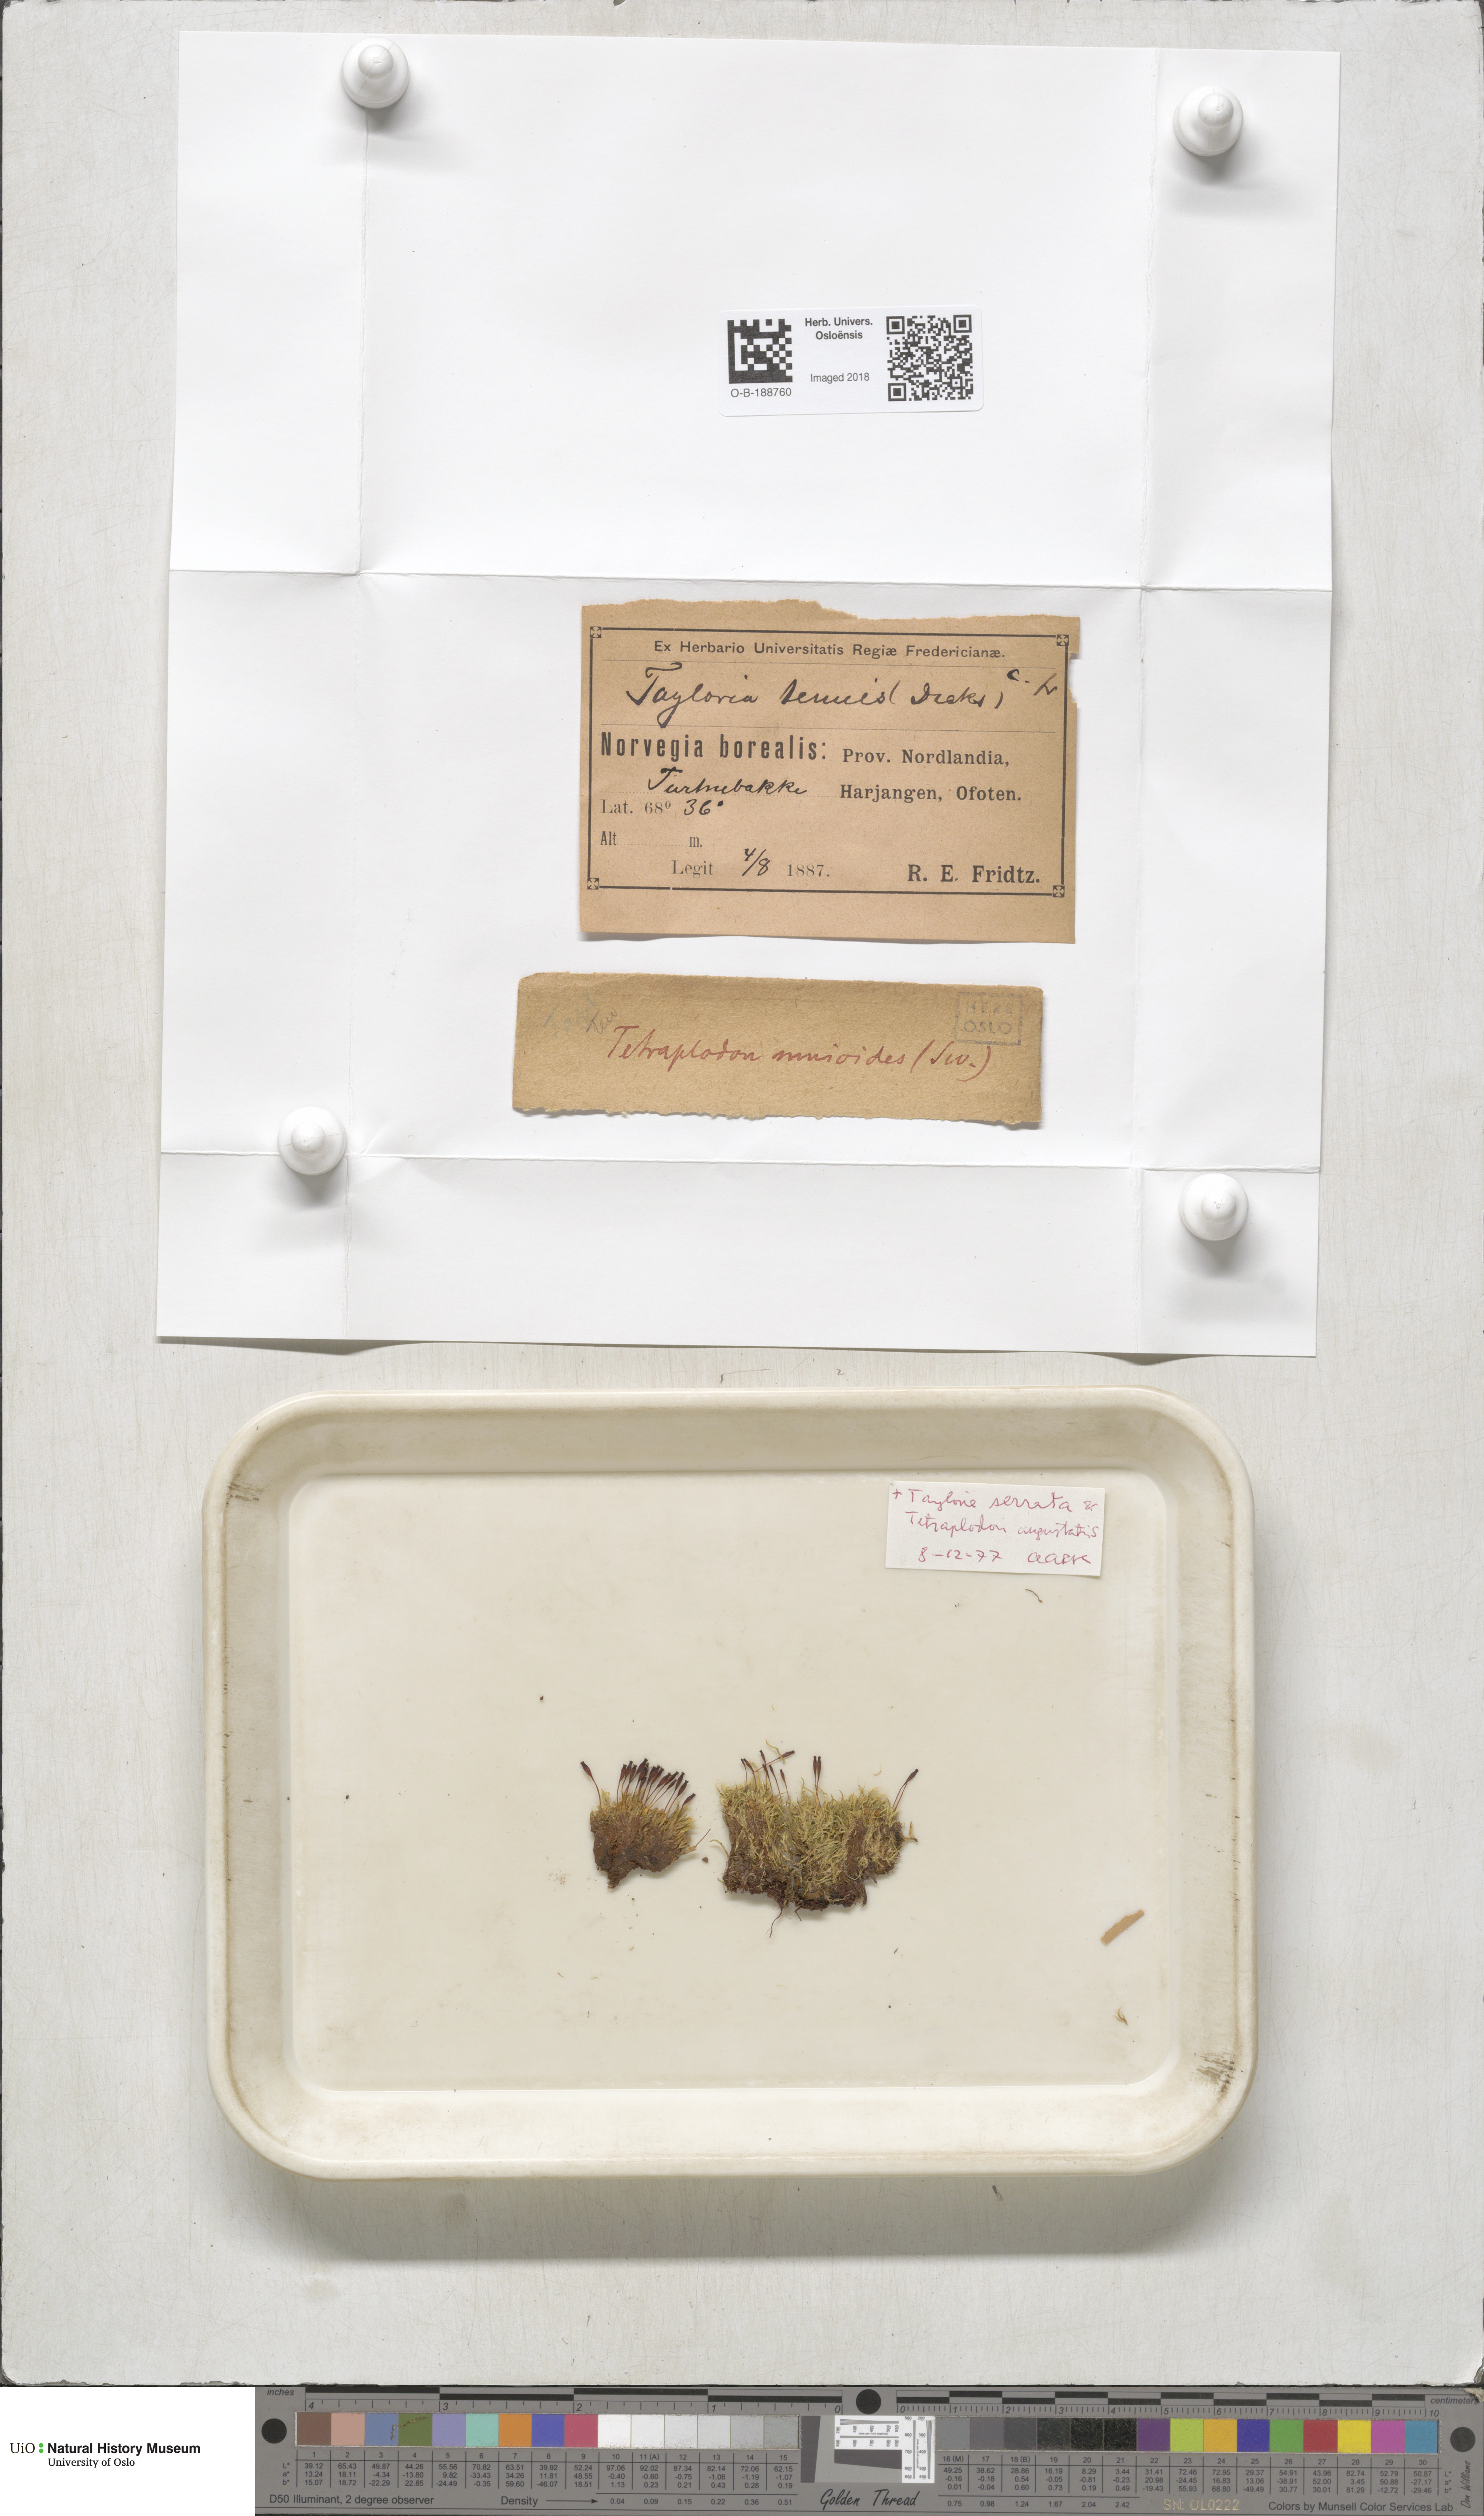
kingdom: Plantae
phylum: Bryophyta
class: Bryopsida
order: Splachnales
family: Splachnaceae
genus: Tetraplodon
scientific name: Tetraplodon mnioides
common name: Entire-leaved nitrogen moss
